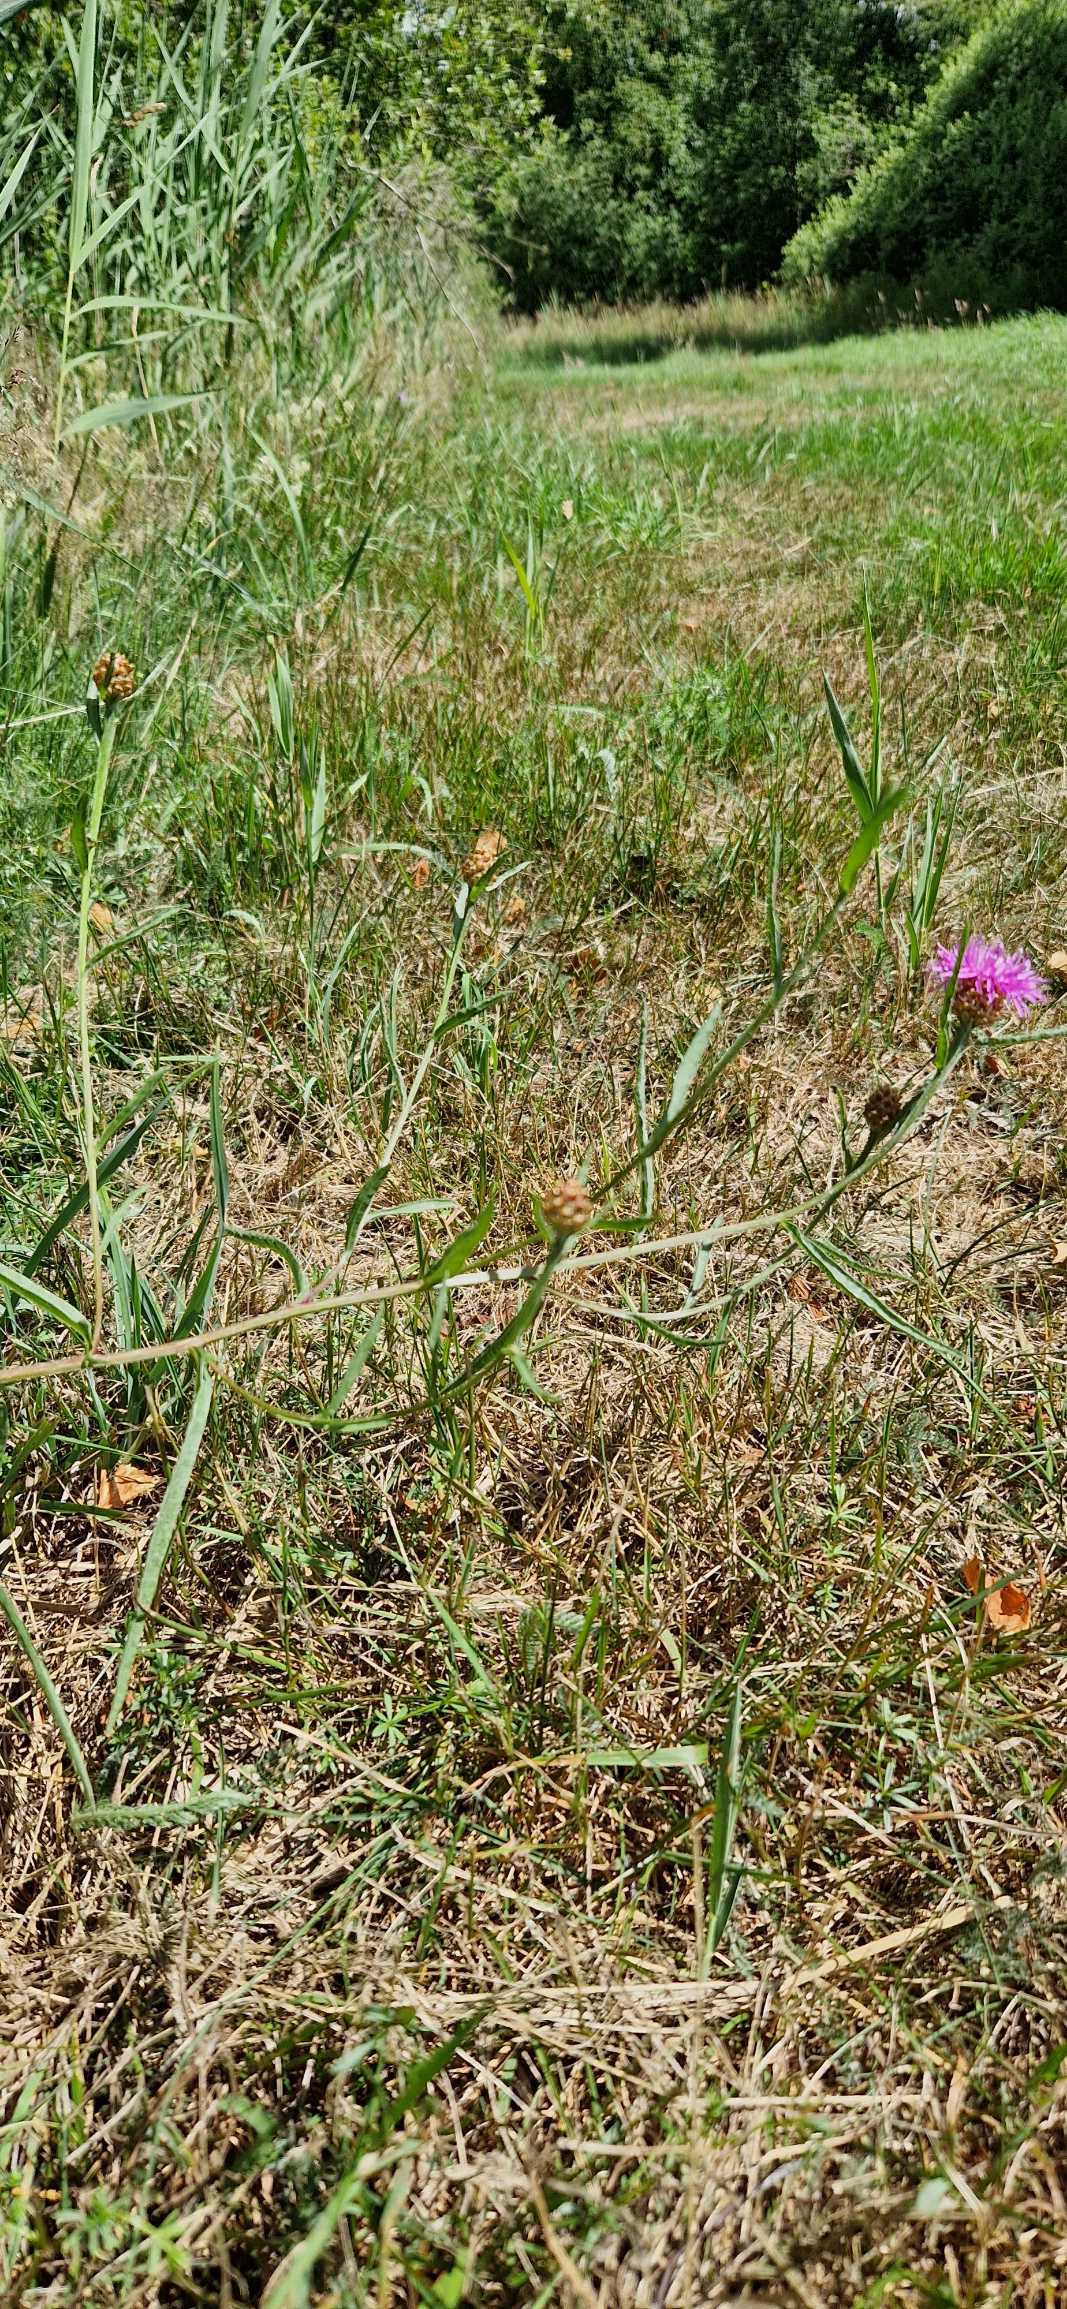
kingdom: Plantae
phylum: Tracheophyta
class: Magnoliopsida
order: Asterales
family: Asteraceae
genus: Centaurea
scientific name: Centaurea jacea
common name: Almindelig knopurt
